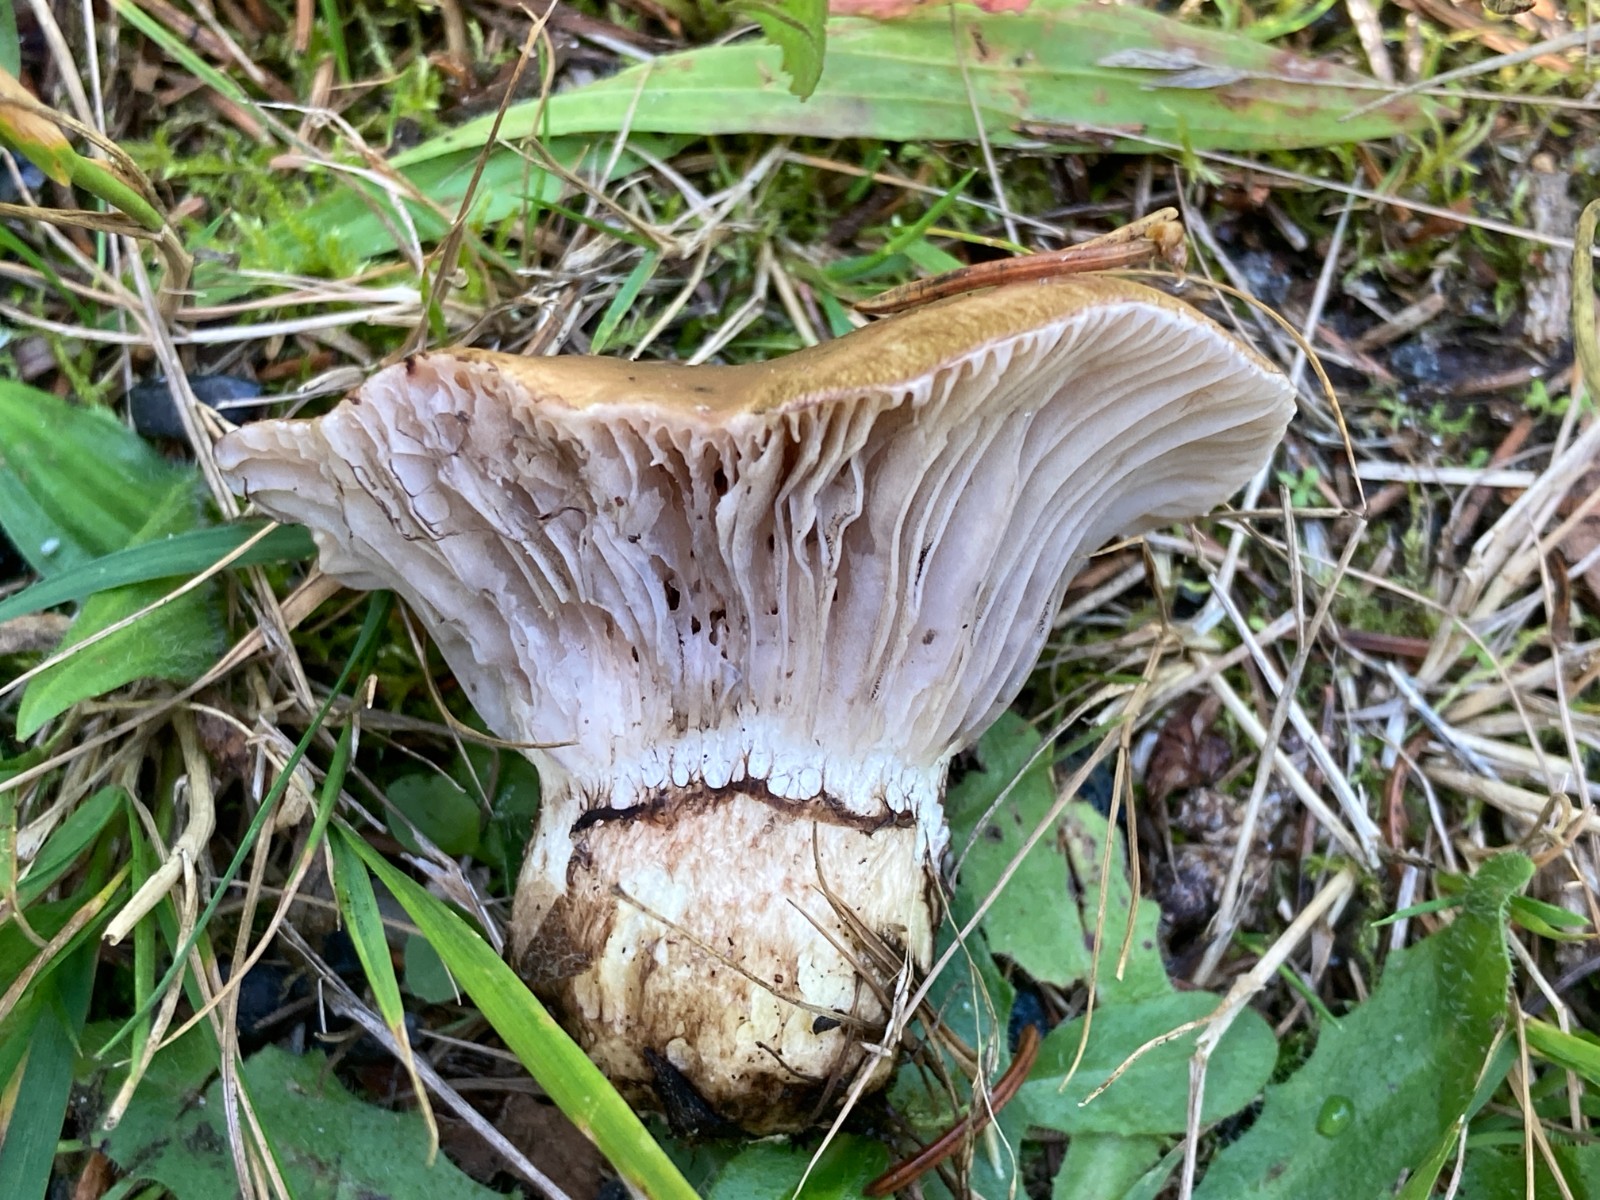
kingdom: Fungi
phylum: Basidiomycota
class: Agaricomycetes
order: Boletales
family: Gomphidiaceae
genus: Gomphidius
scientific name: Gomphidius glutinosus
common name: grå slimslør
